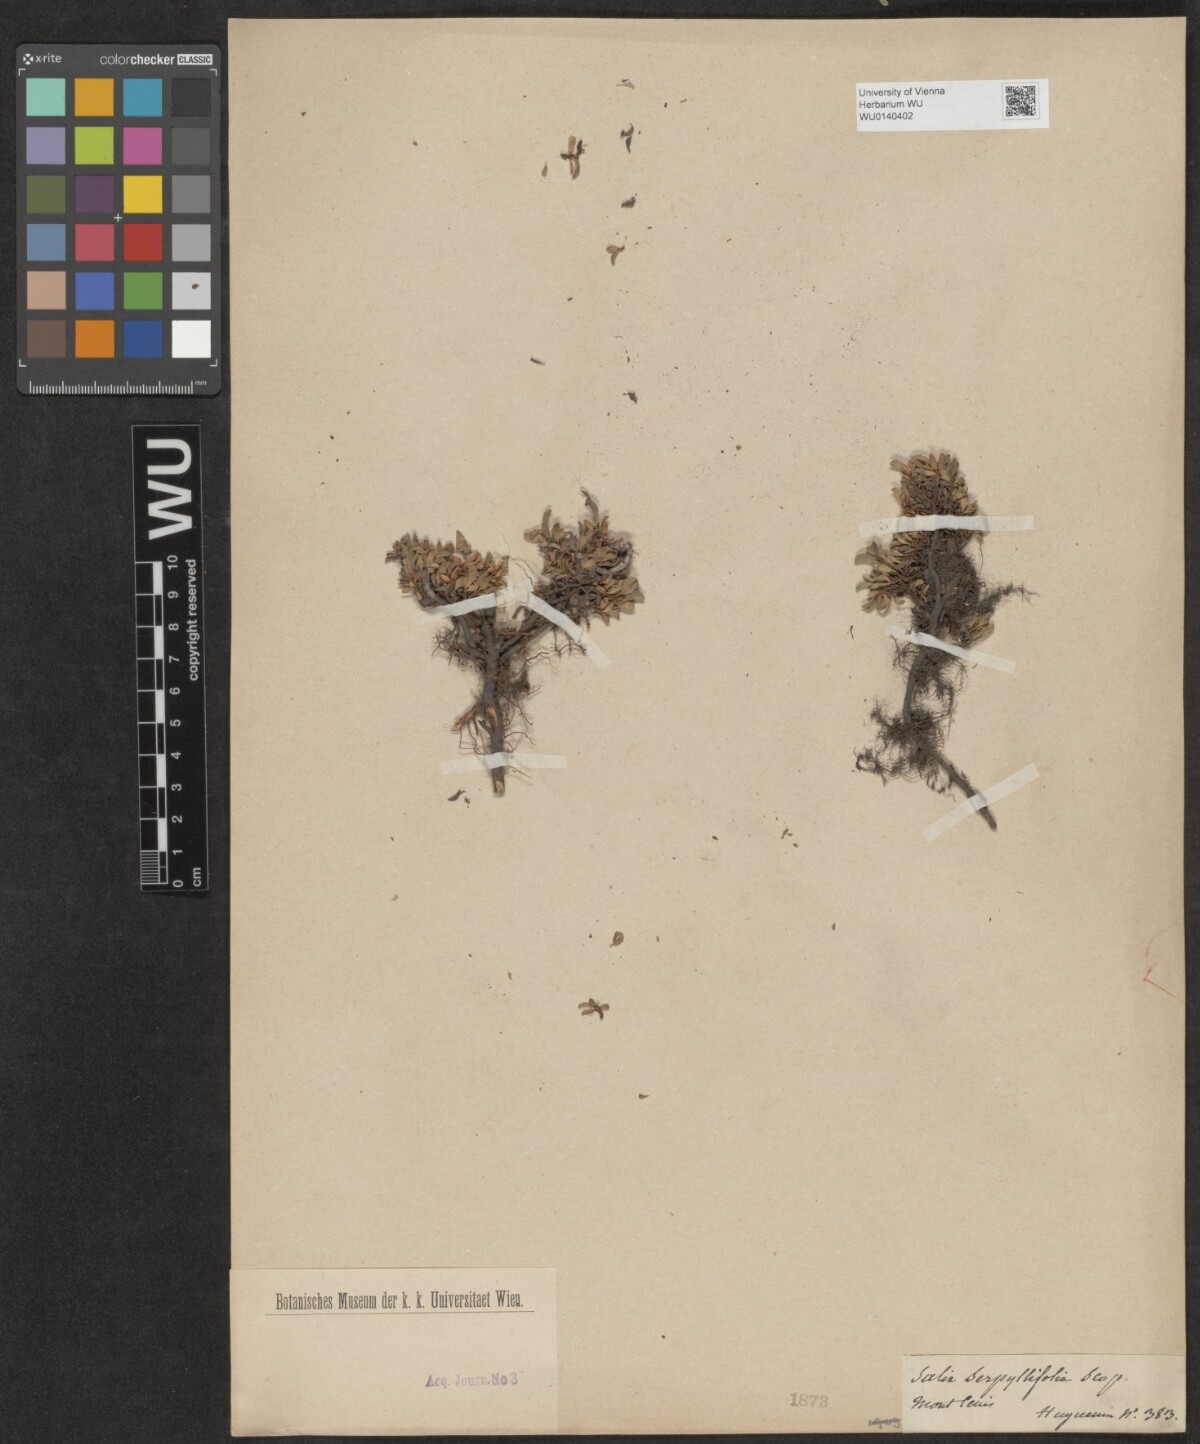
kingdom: Plantae
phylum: Tracheophyta
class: Magnoliopsida
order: Malpighiales
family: Salicaceae
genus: Salix
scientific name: Salix serpillifolia
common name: Thyme-leaf willow
